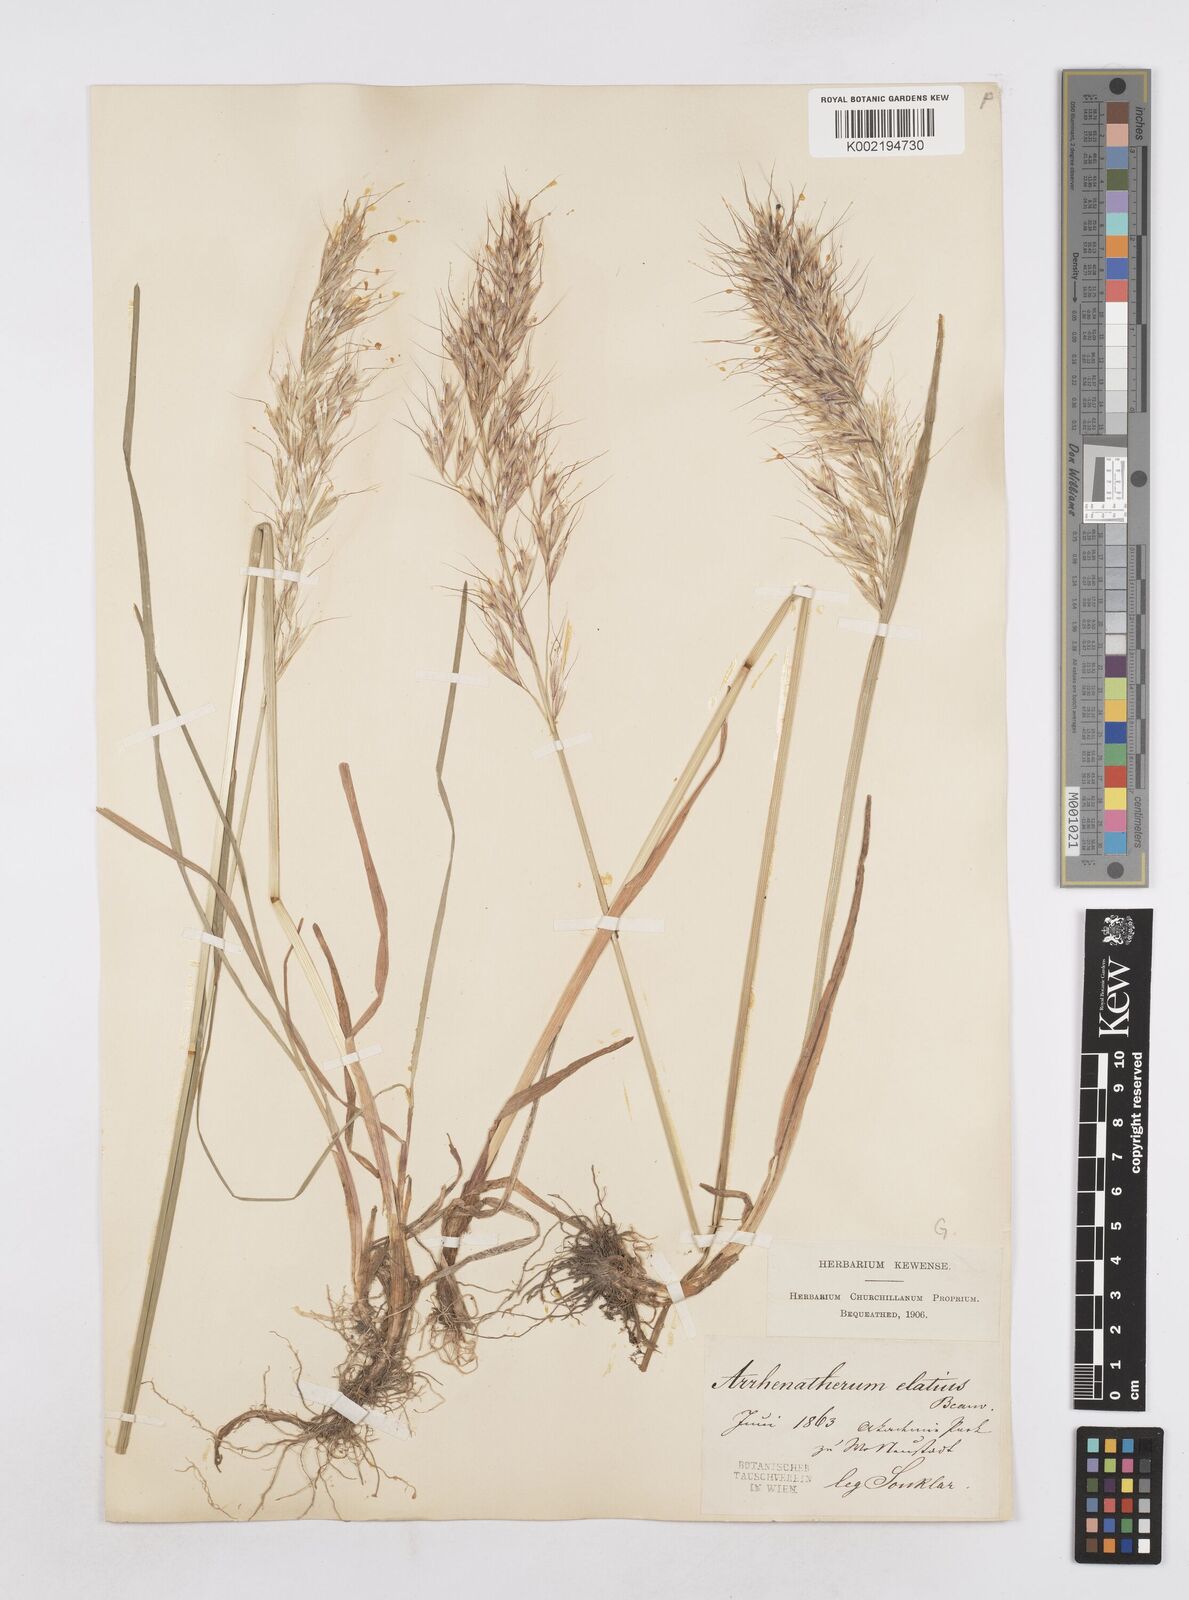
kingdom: Plantae
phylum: Tracheophyta
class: Liliopsida
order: Poales
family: Poaceae
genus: Avenula
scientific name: Avenula pubescens
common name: Downy alpine oatgrass
